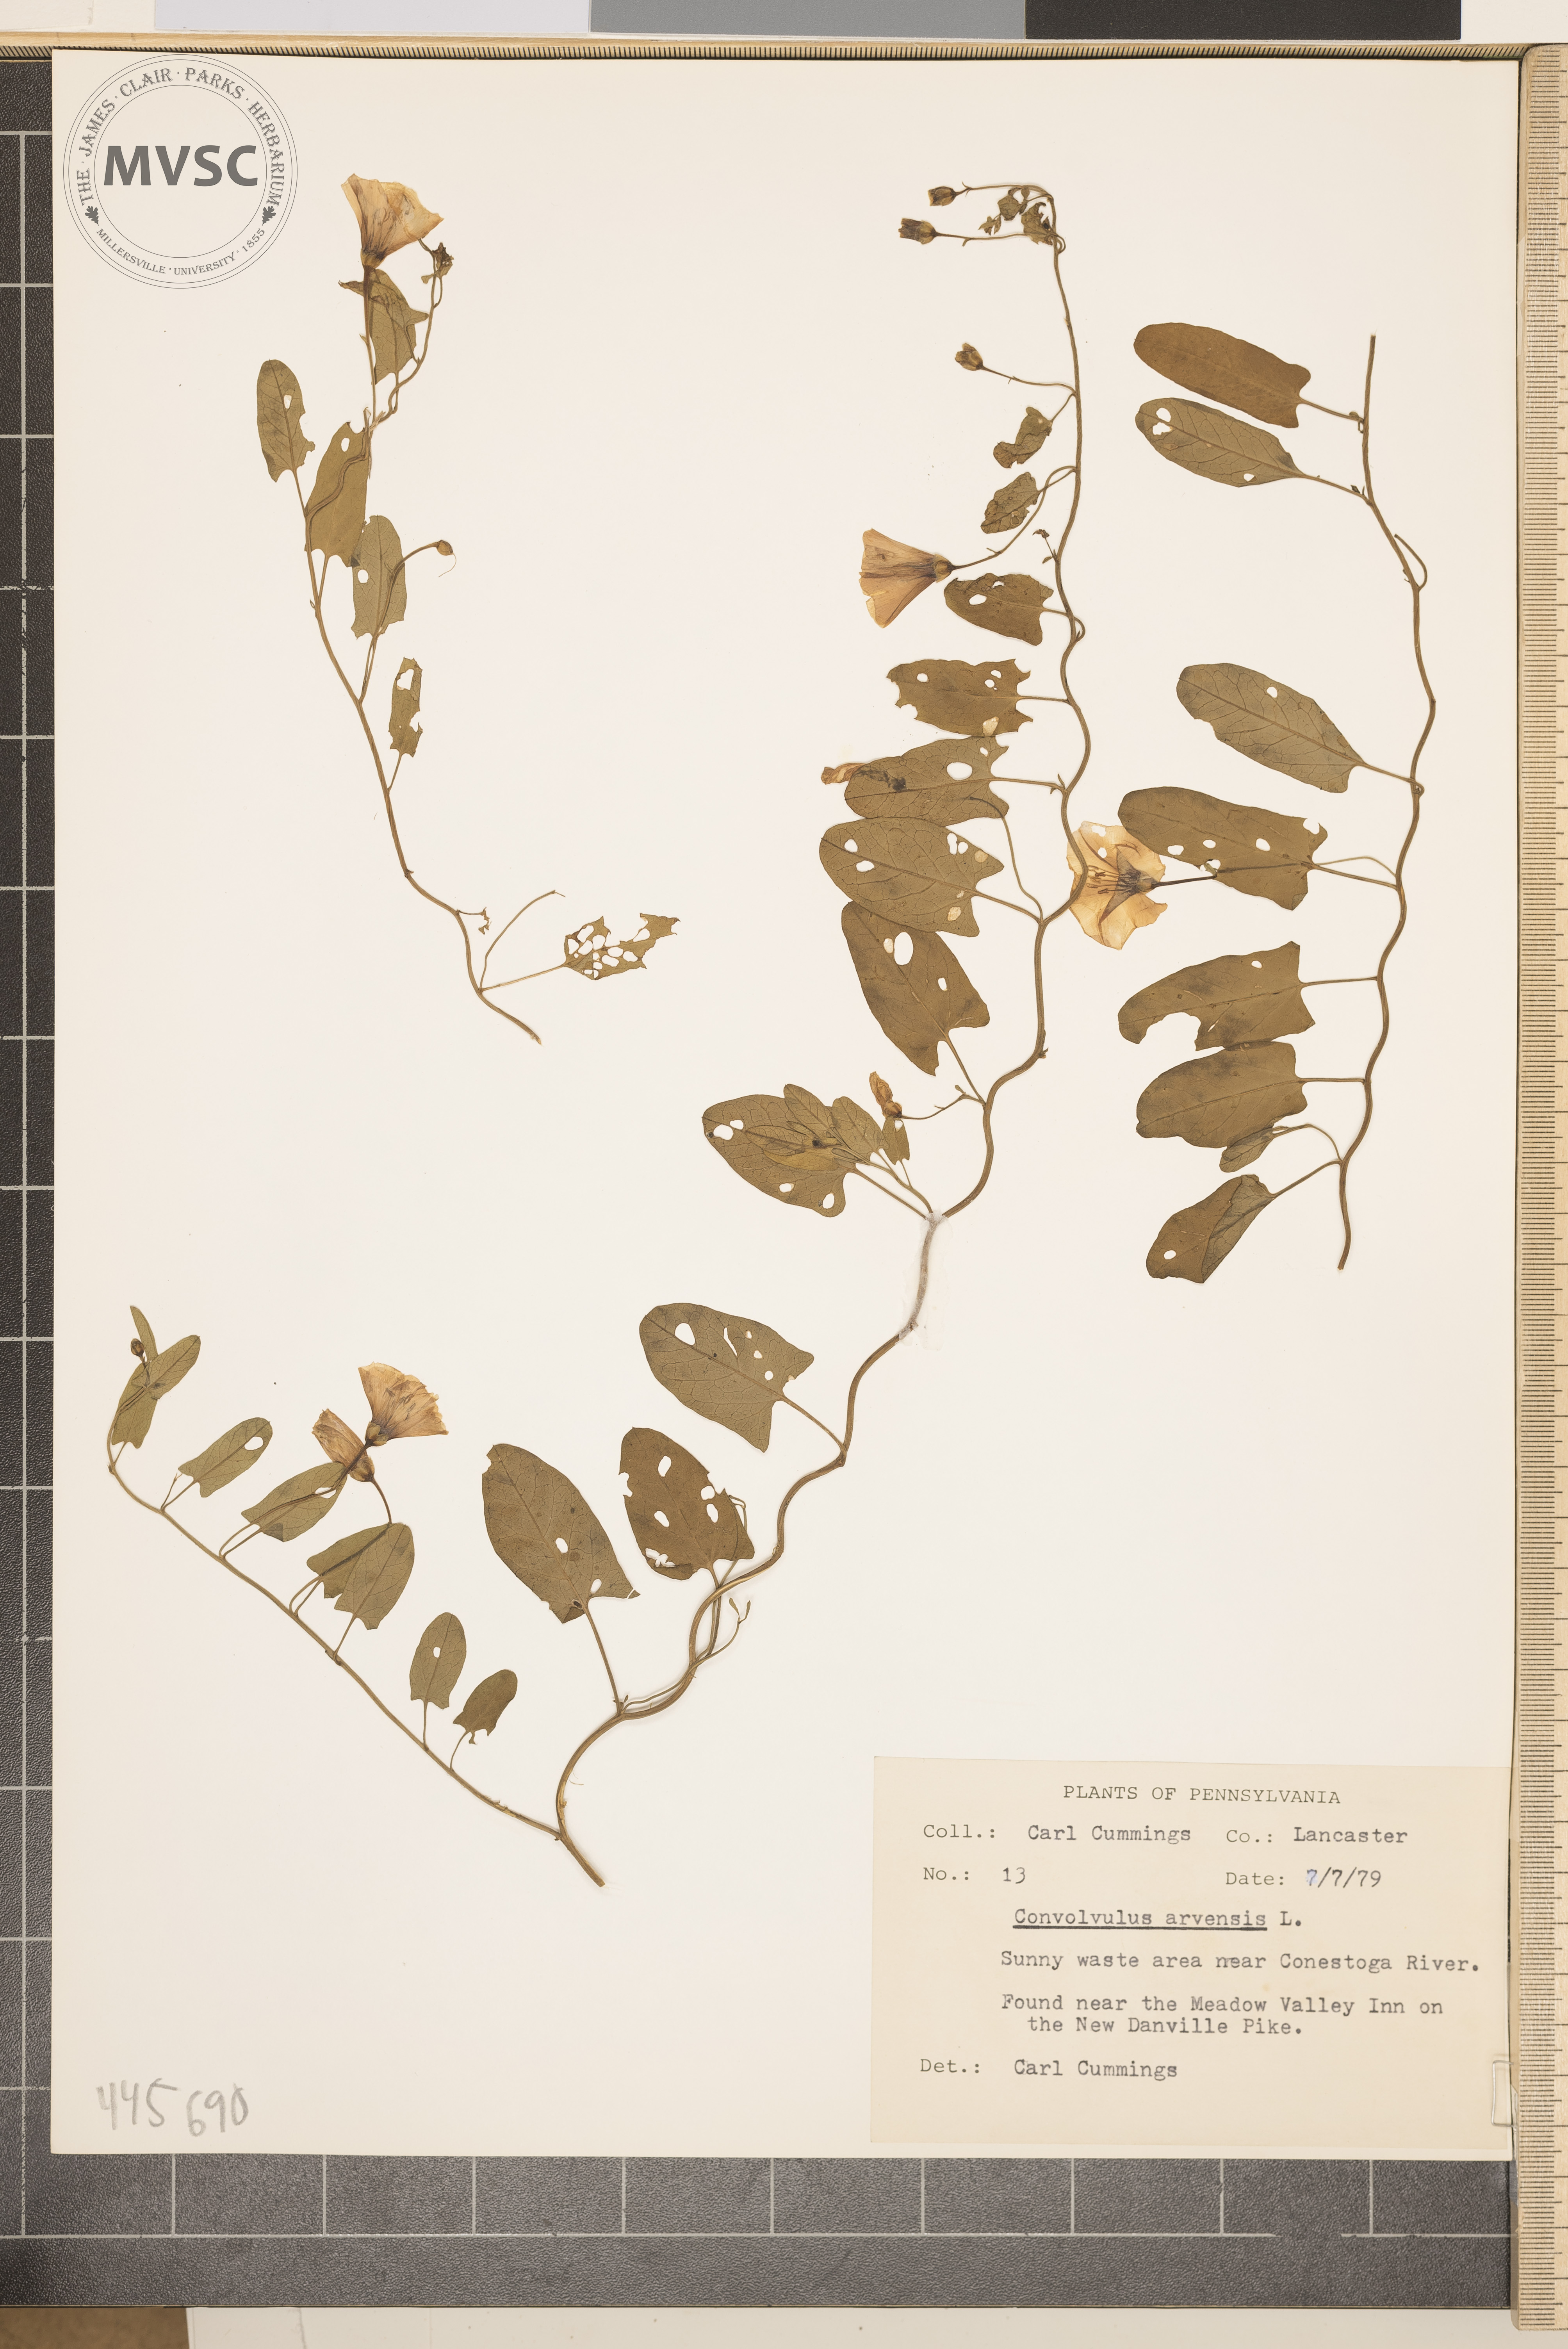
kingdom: Plantae
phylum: Tracheophyta
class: Magnoliopsida
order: Solanales
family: Convolvulaceae
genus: Convolvulus
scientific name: Convolvulus arvensis
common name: Field bindweed
